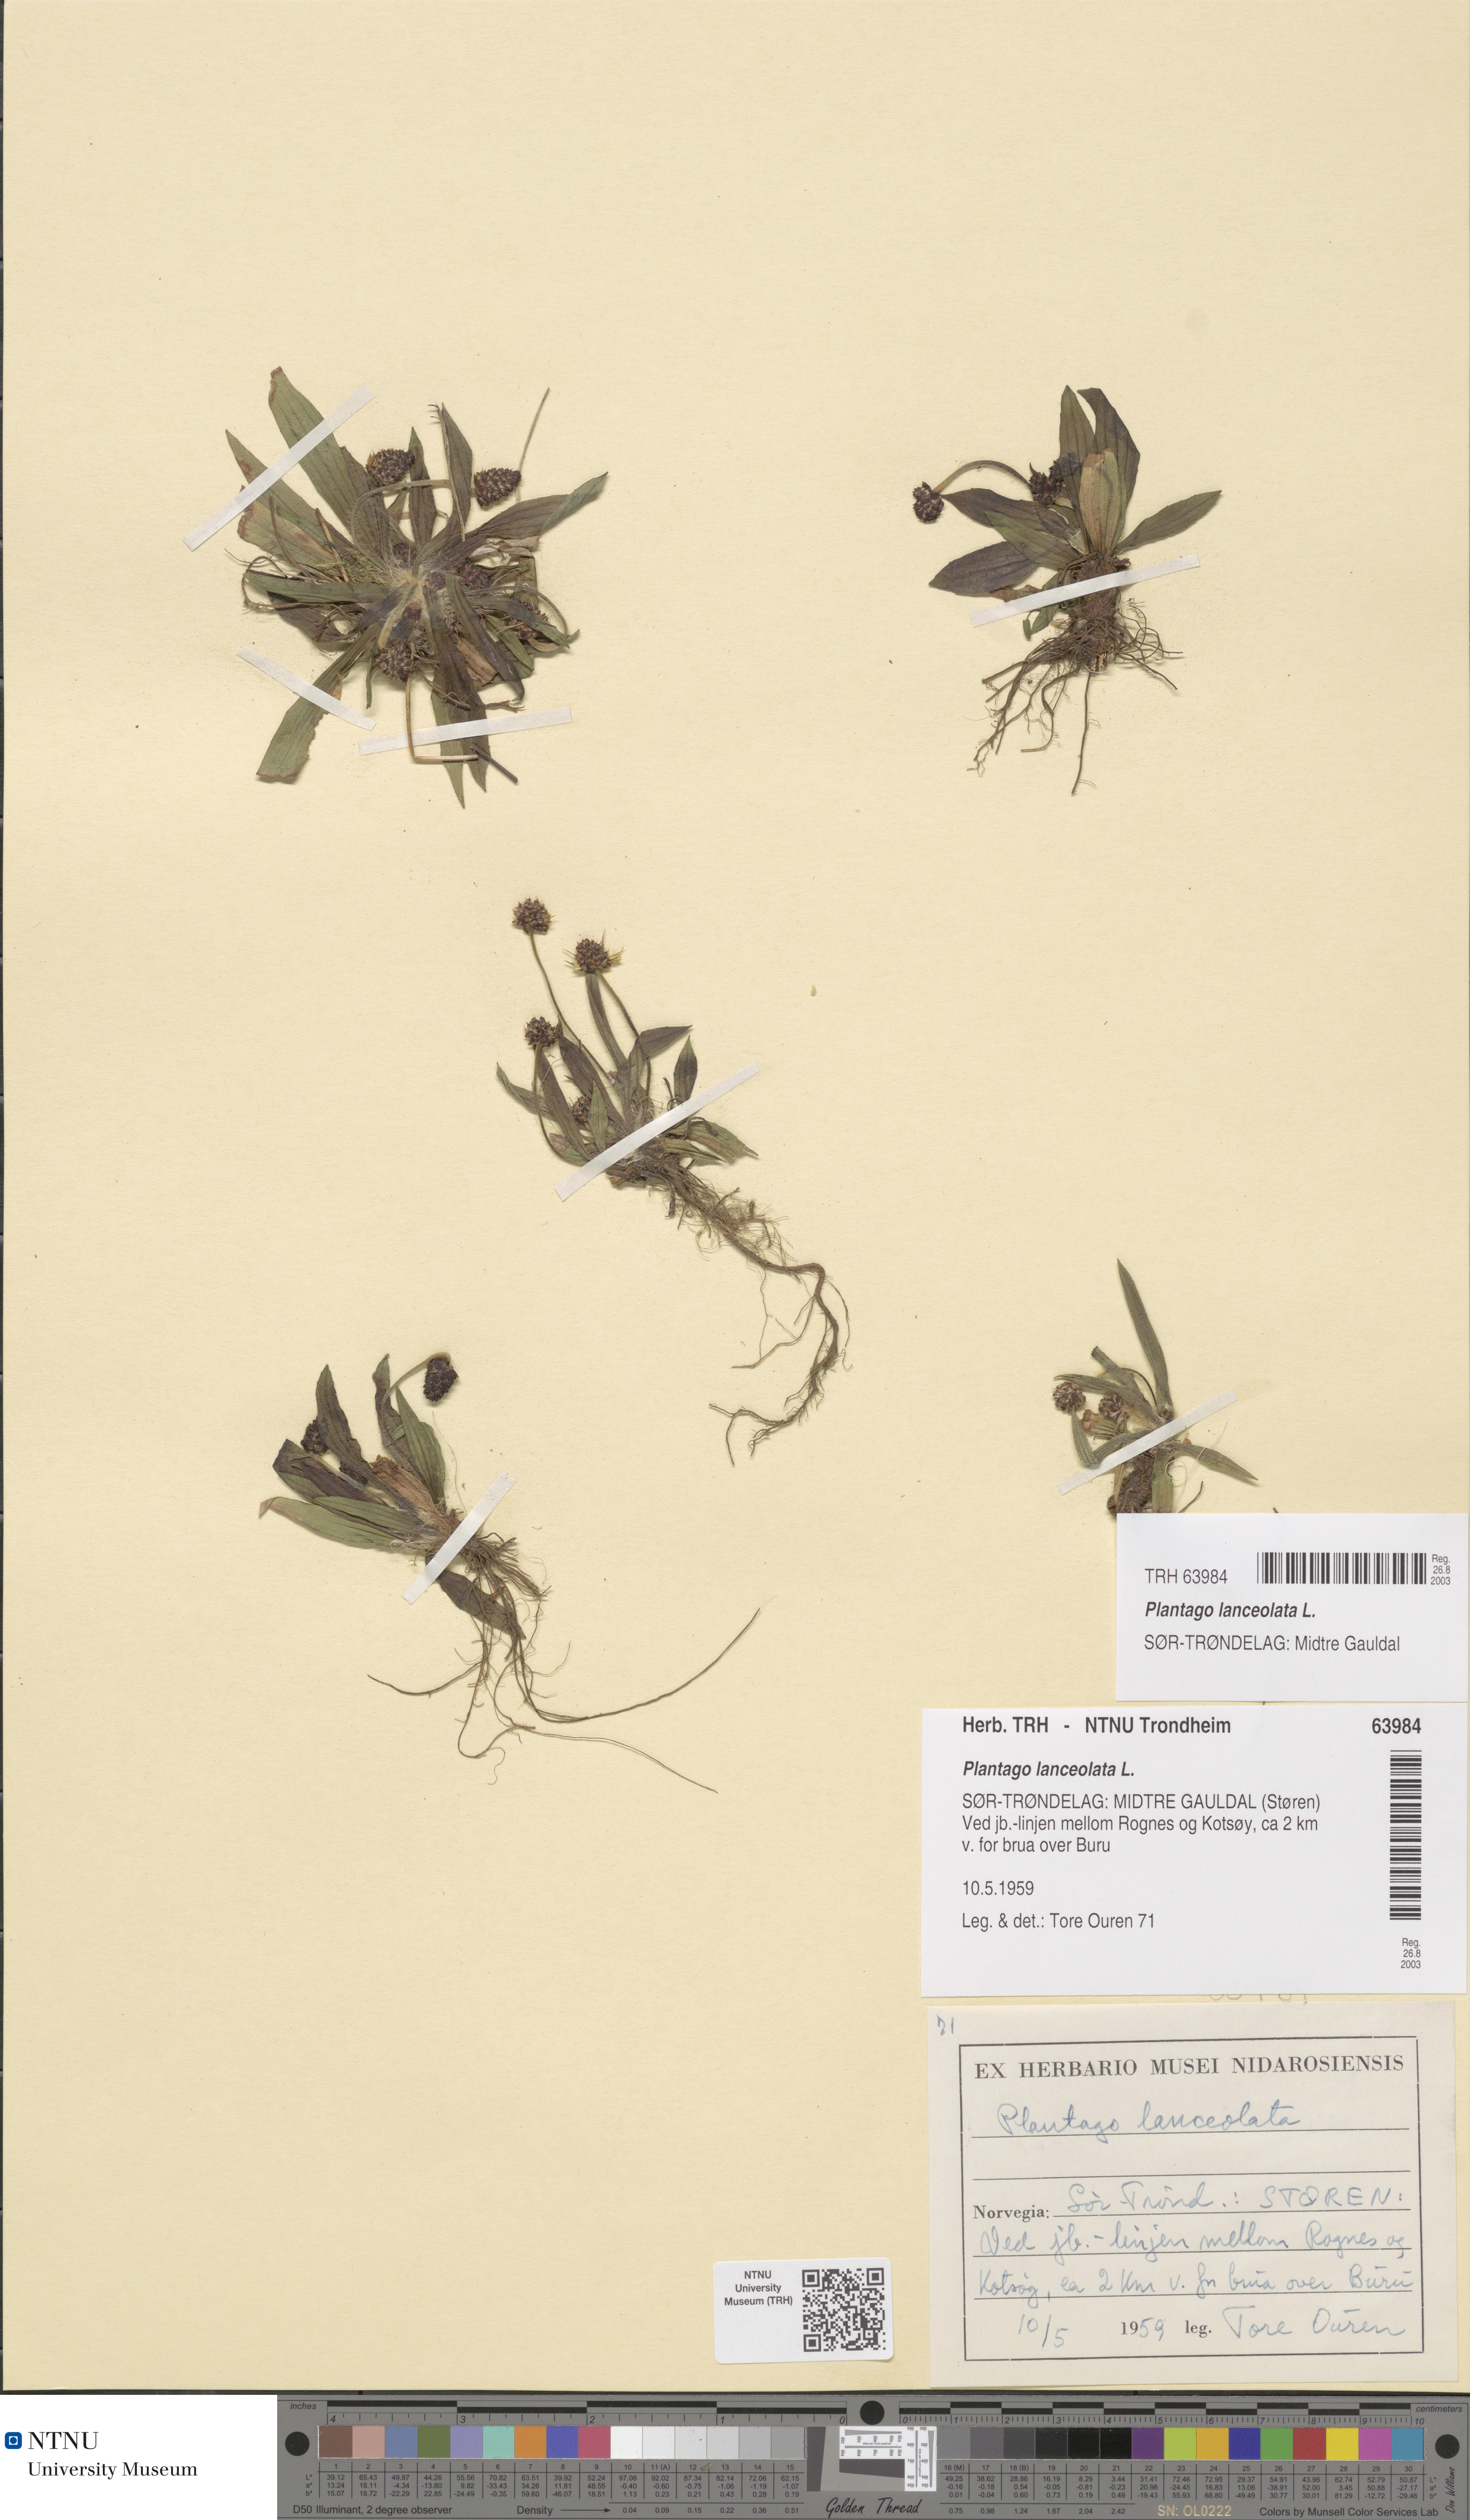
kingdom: Plantae
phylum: Tracheophyta
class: Magnoliopsida
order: Lamiales
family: Plantaginaceae
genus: Plantago
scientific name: Plantago lanceolata
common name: Ribwort plantain
